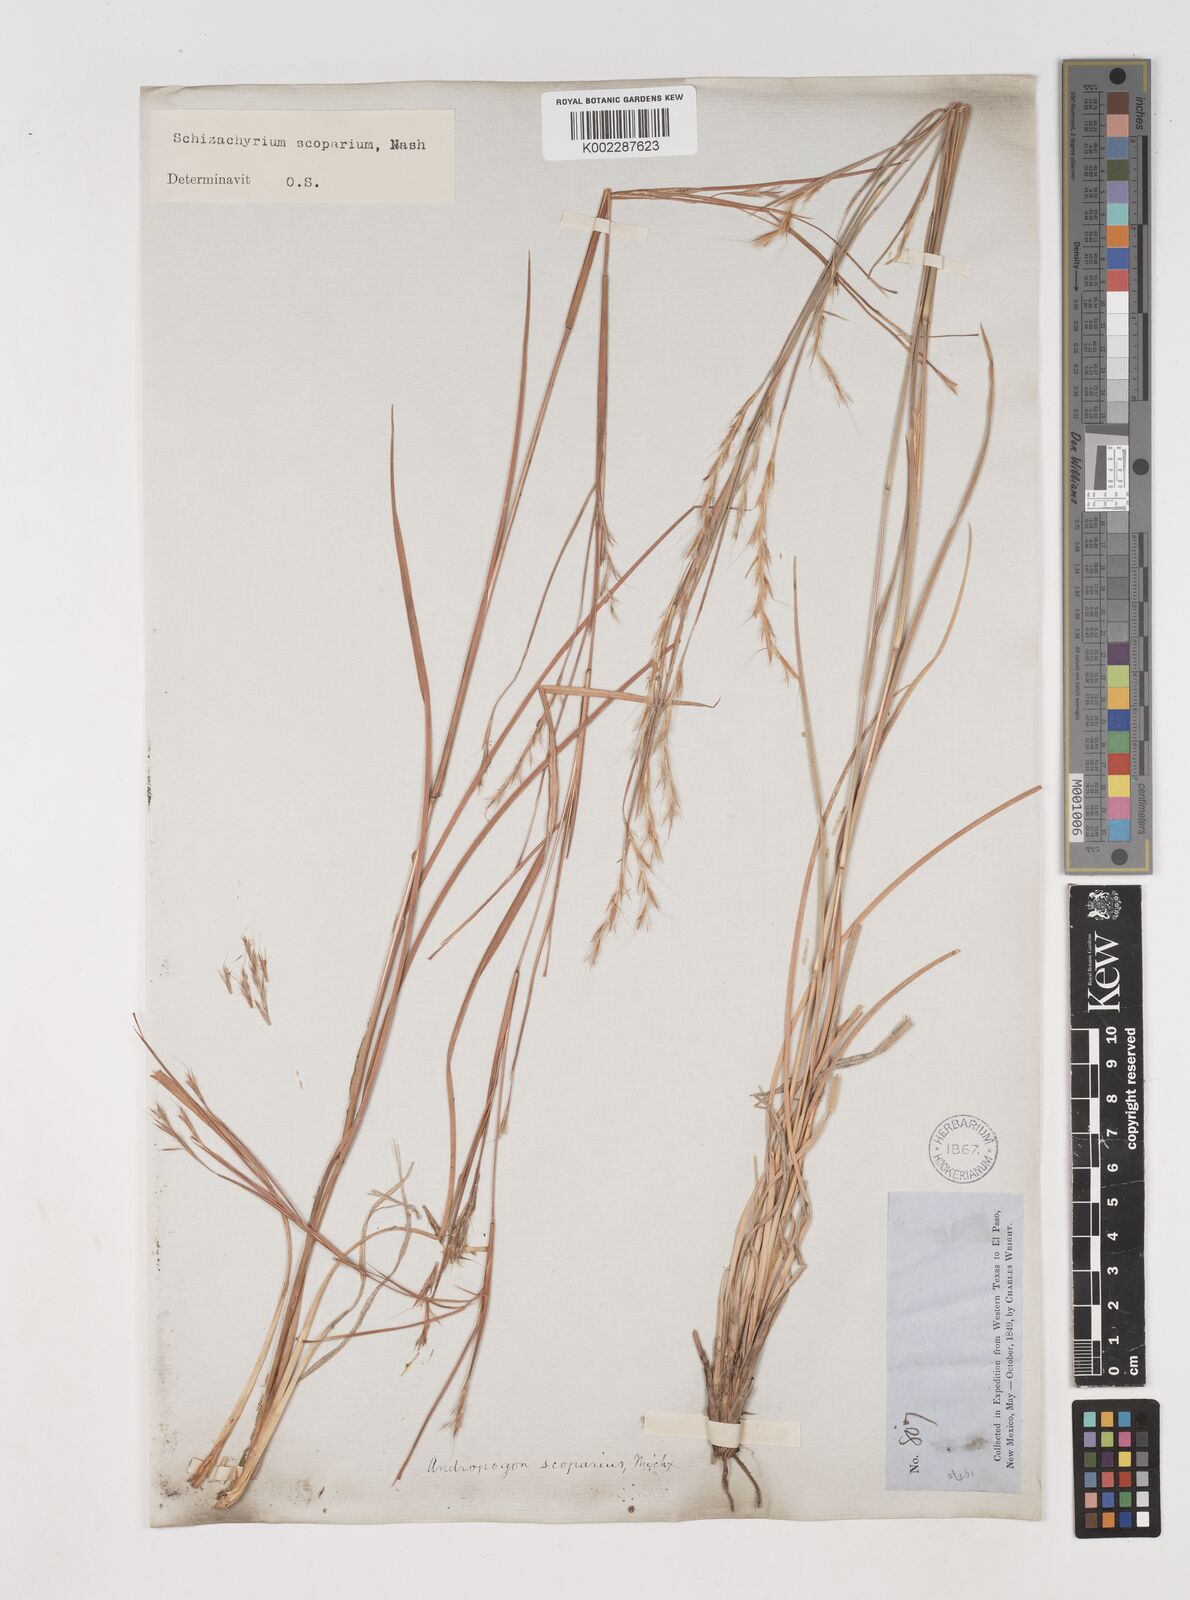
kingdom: Plantae
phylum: Tracheophyta
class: Liliopsida
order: Poales
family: Poaceae
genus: Schizachyrium
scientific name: Schizachyrium scoparium
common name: Little bluestem
